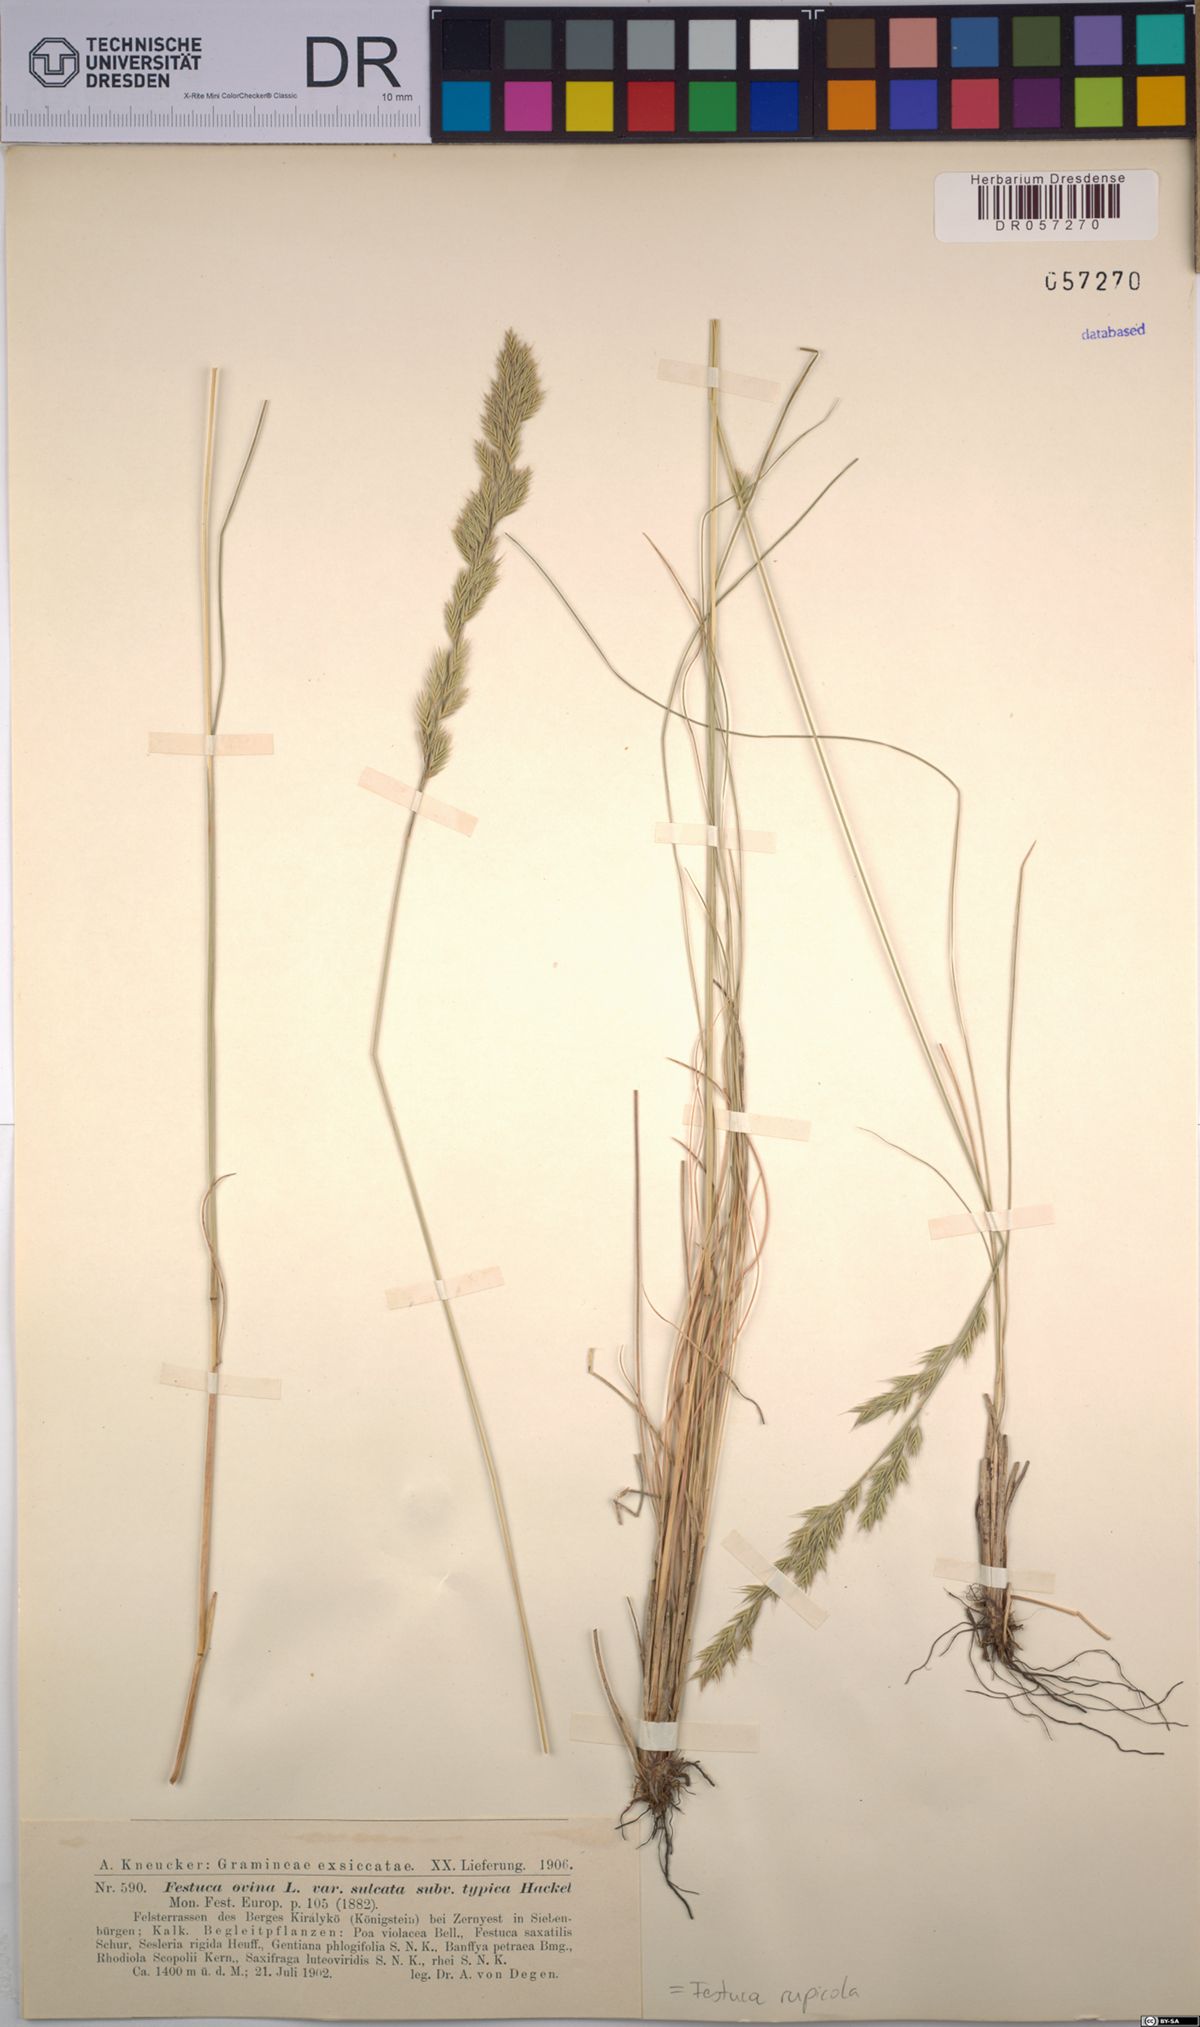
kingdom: Plantae
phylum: Tracheophyta
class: Liliopsida
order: Poales
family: Poaceae
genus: Festuca
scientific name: Festuca rupicola
